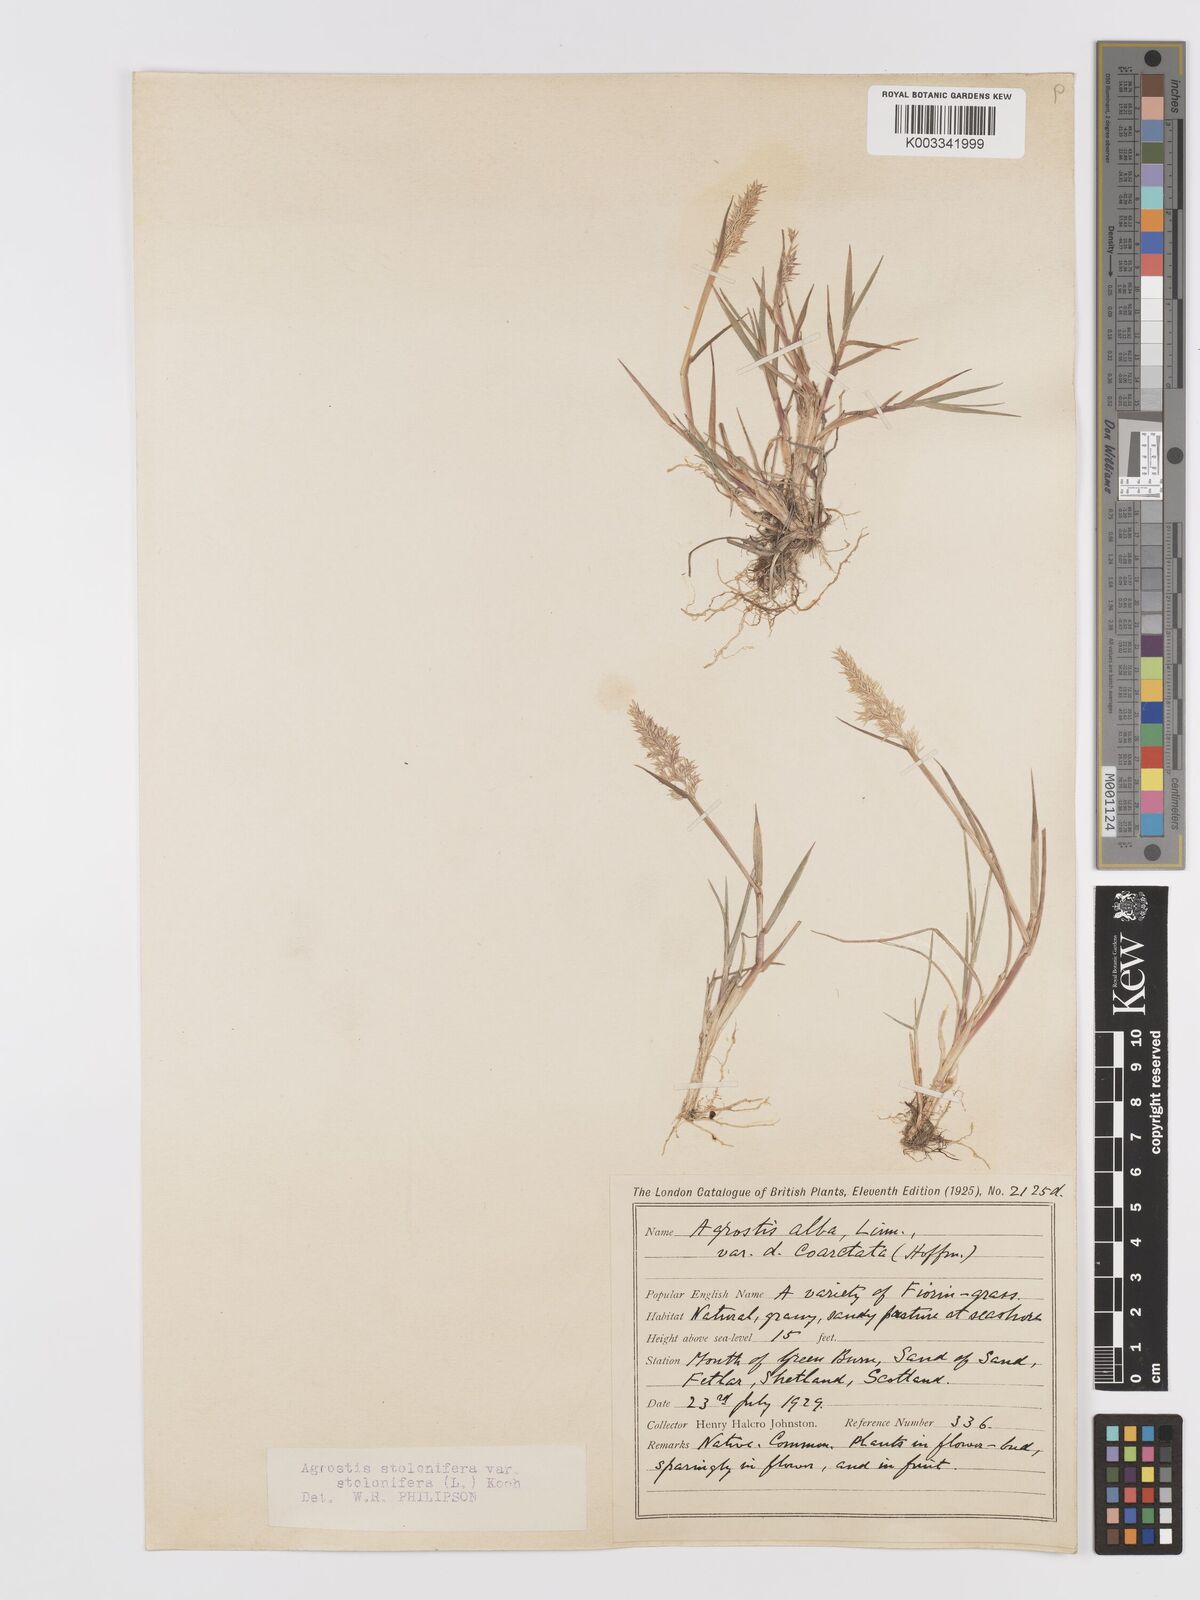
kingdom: Plantae
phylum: Tracheophyta
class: Liliopsida
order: Poales
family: Poaceae
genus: Agrostis
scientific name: Agrostis stolonifera
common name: Creeping bentgrass
